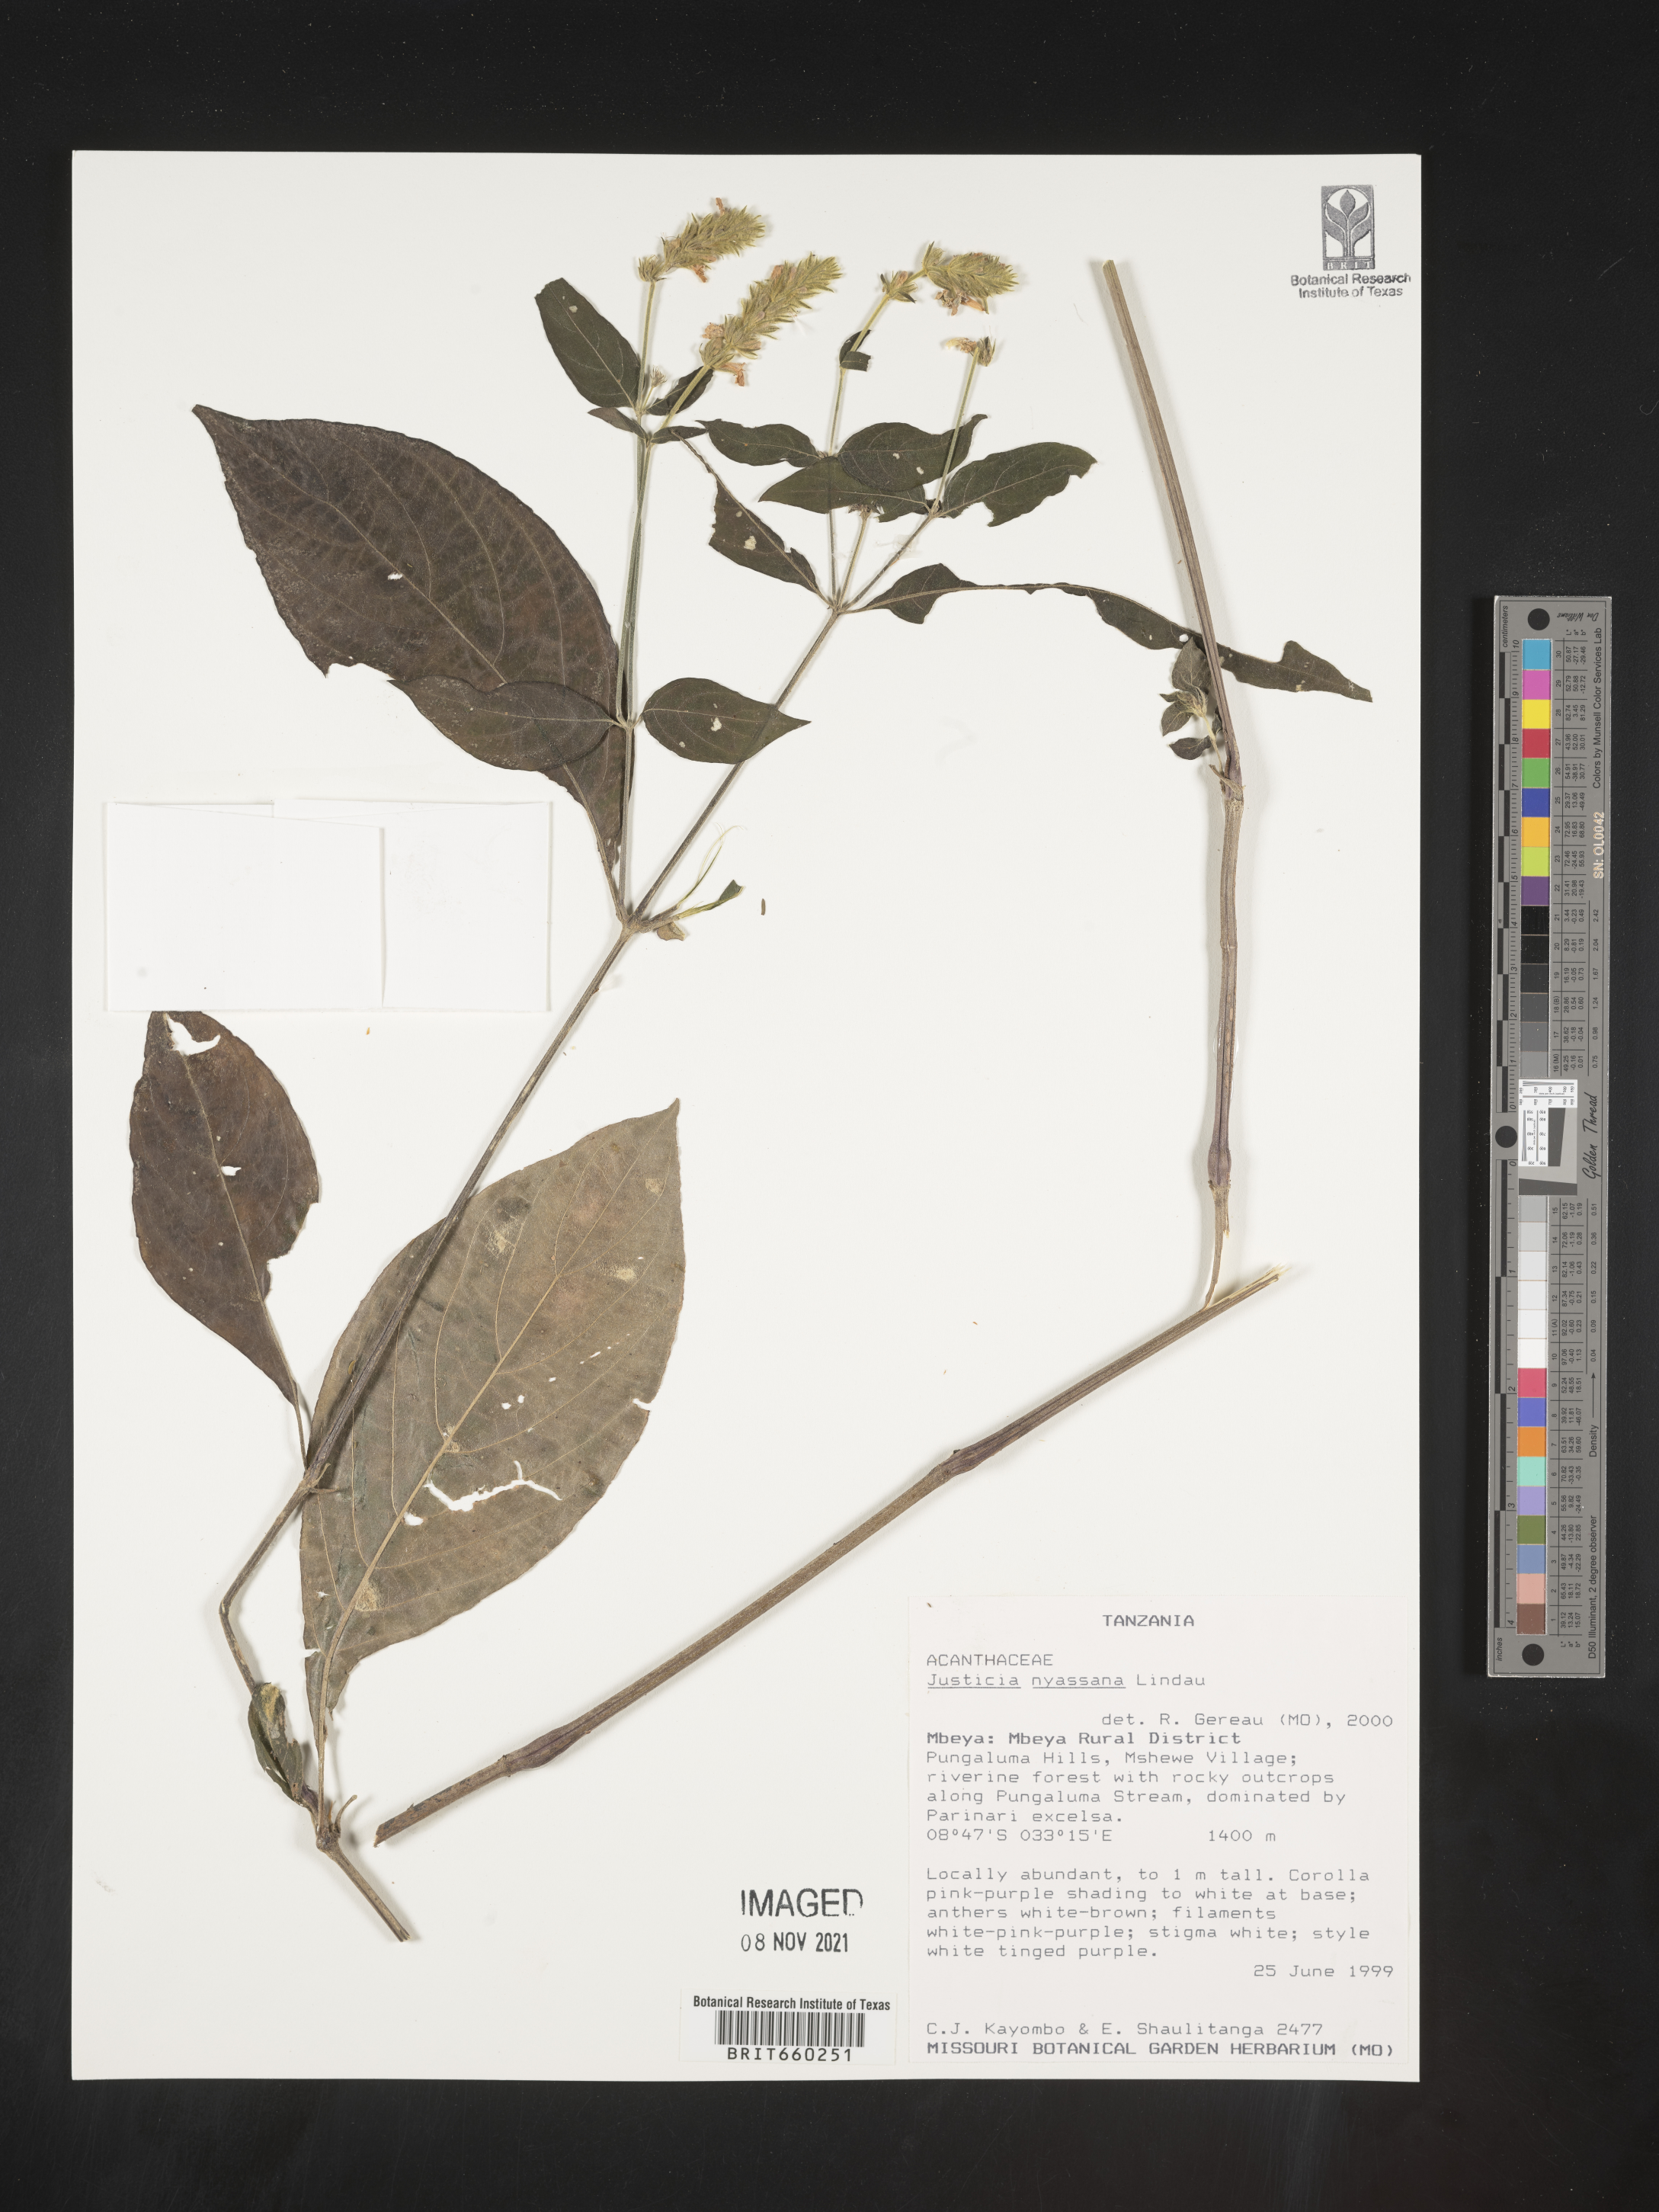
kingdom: Plantae
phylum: Tracheophyta
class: Magnoliopsida
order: Lamiales
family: Acanthaceae
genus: Justicia
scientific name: Justicia nyassana
